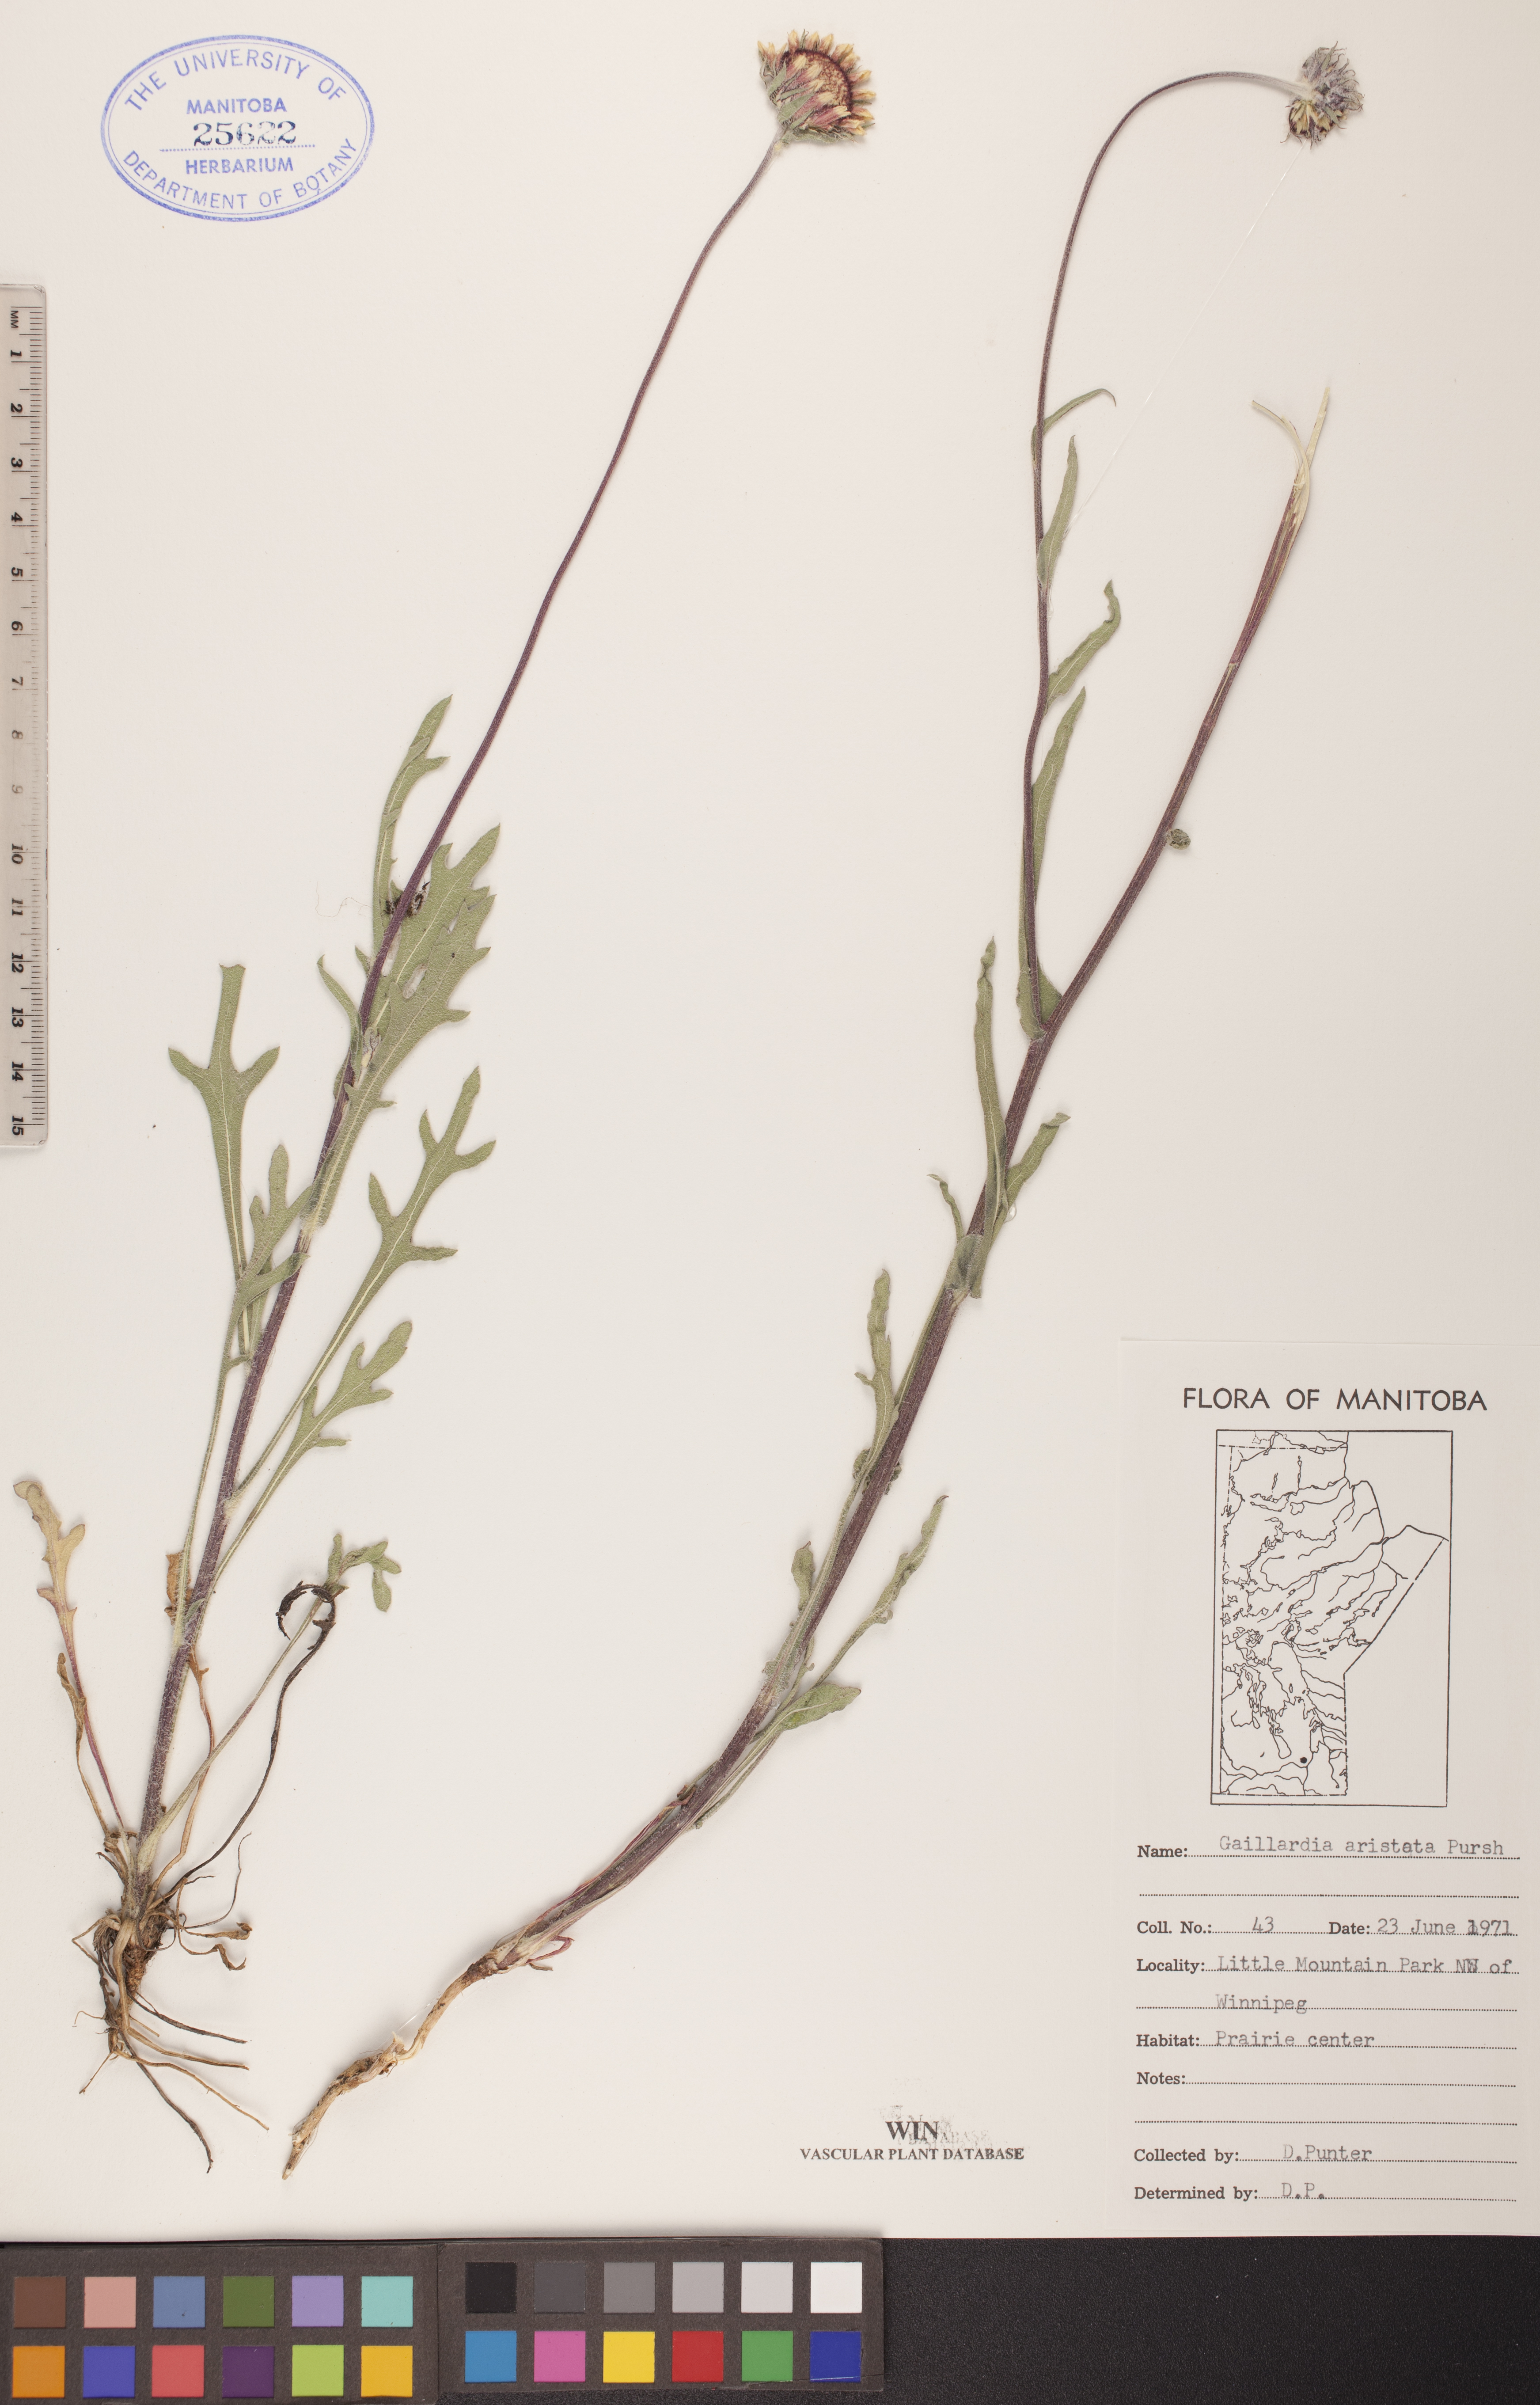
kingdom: Plantae
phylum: Tracheophyta
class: Magnoliopsida
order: Asterales
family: Asteraceae
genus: Gaillardia
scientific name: Gaillardia aristata
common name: Blanket-flower
